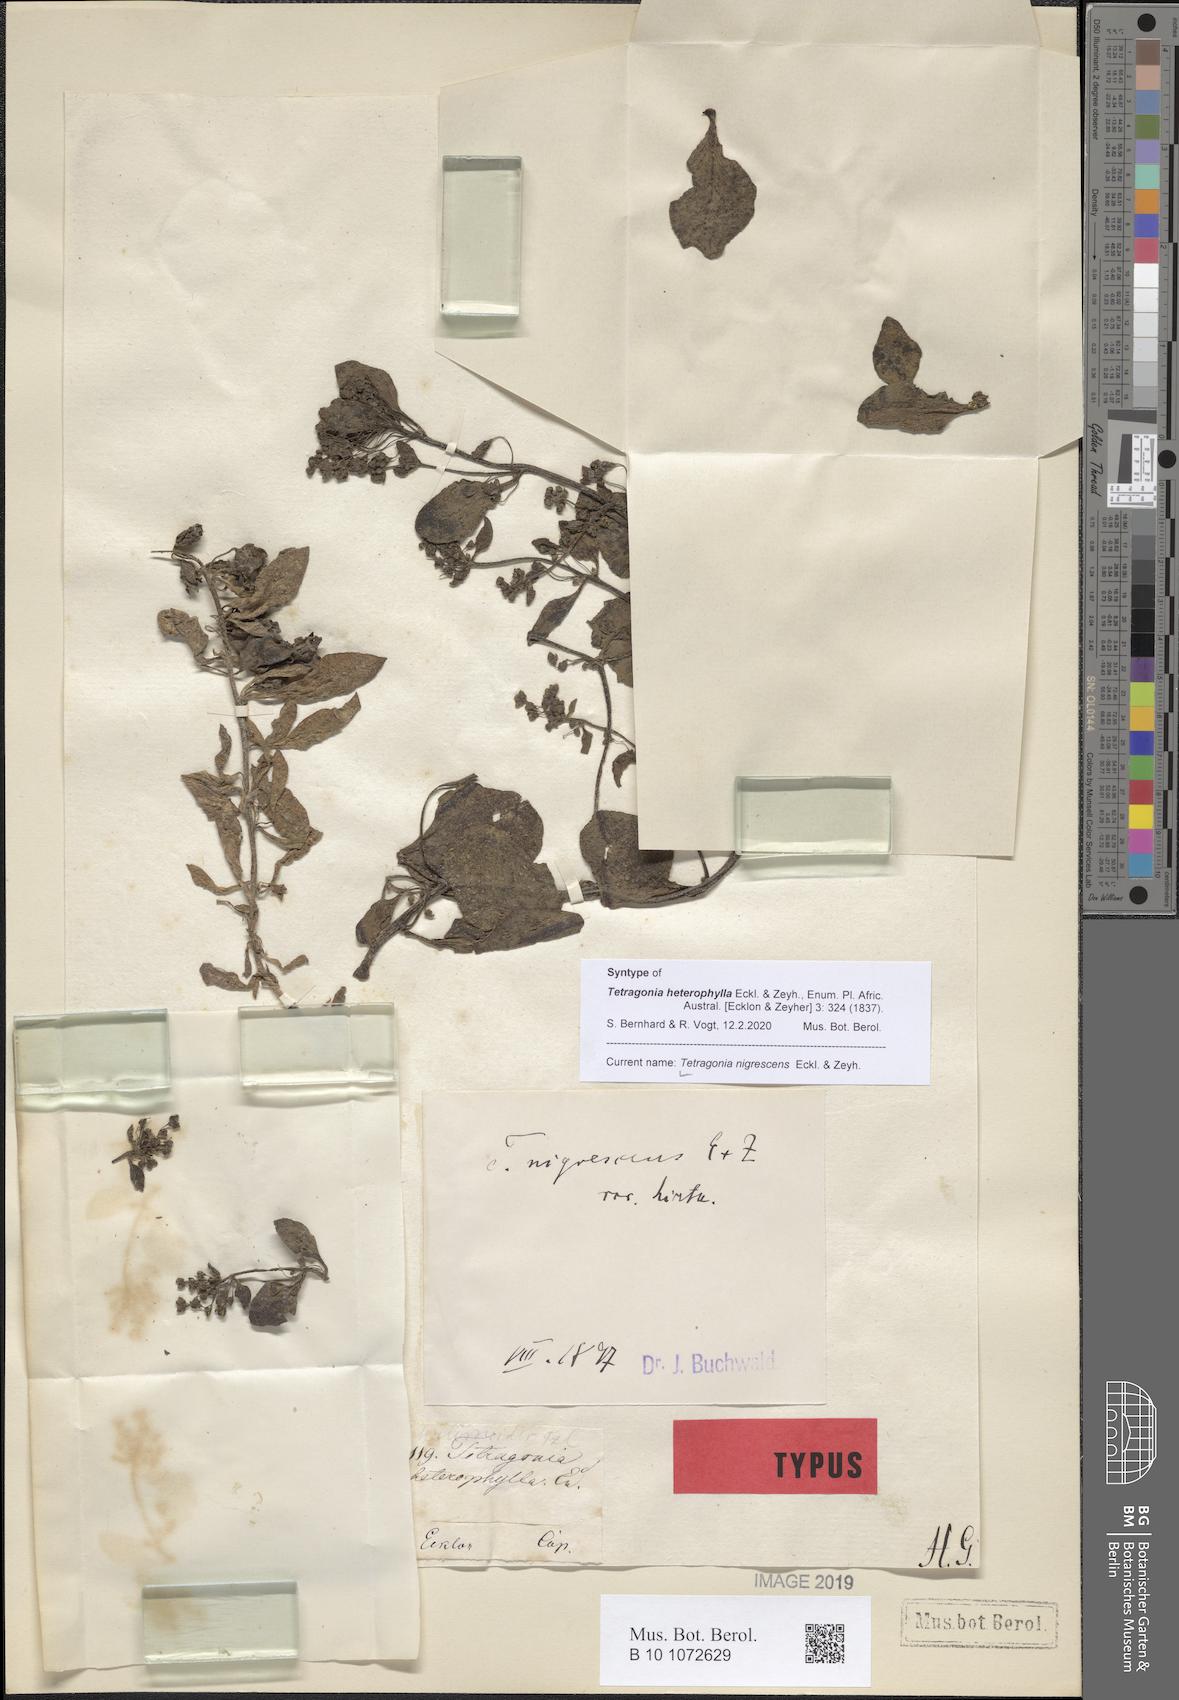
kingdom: Plantae
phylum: Tracheophyta
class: Magnoliopsida
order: Caryophyllales
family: Aizoaceae
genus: Tetragonia
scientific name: Tetragonia nigrescens
